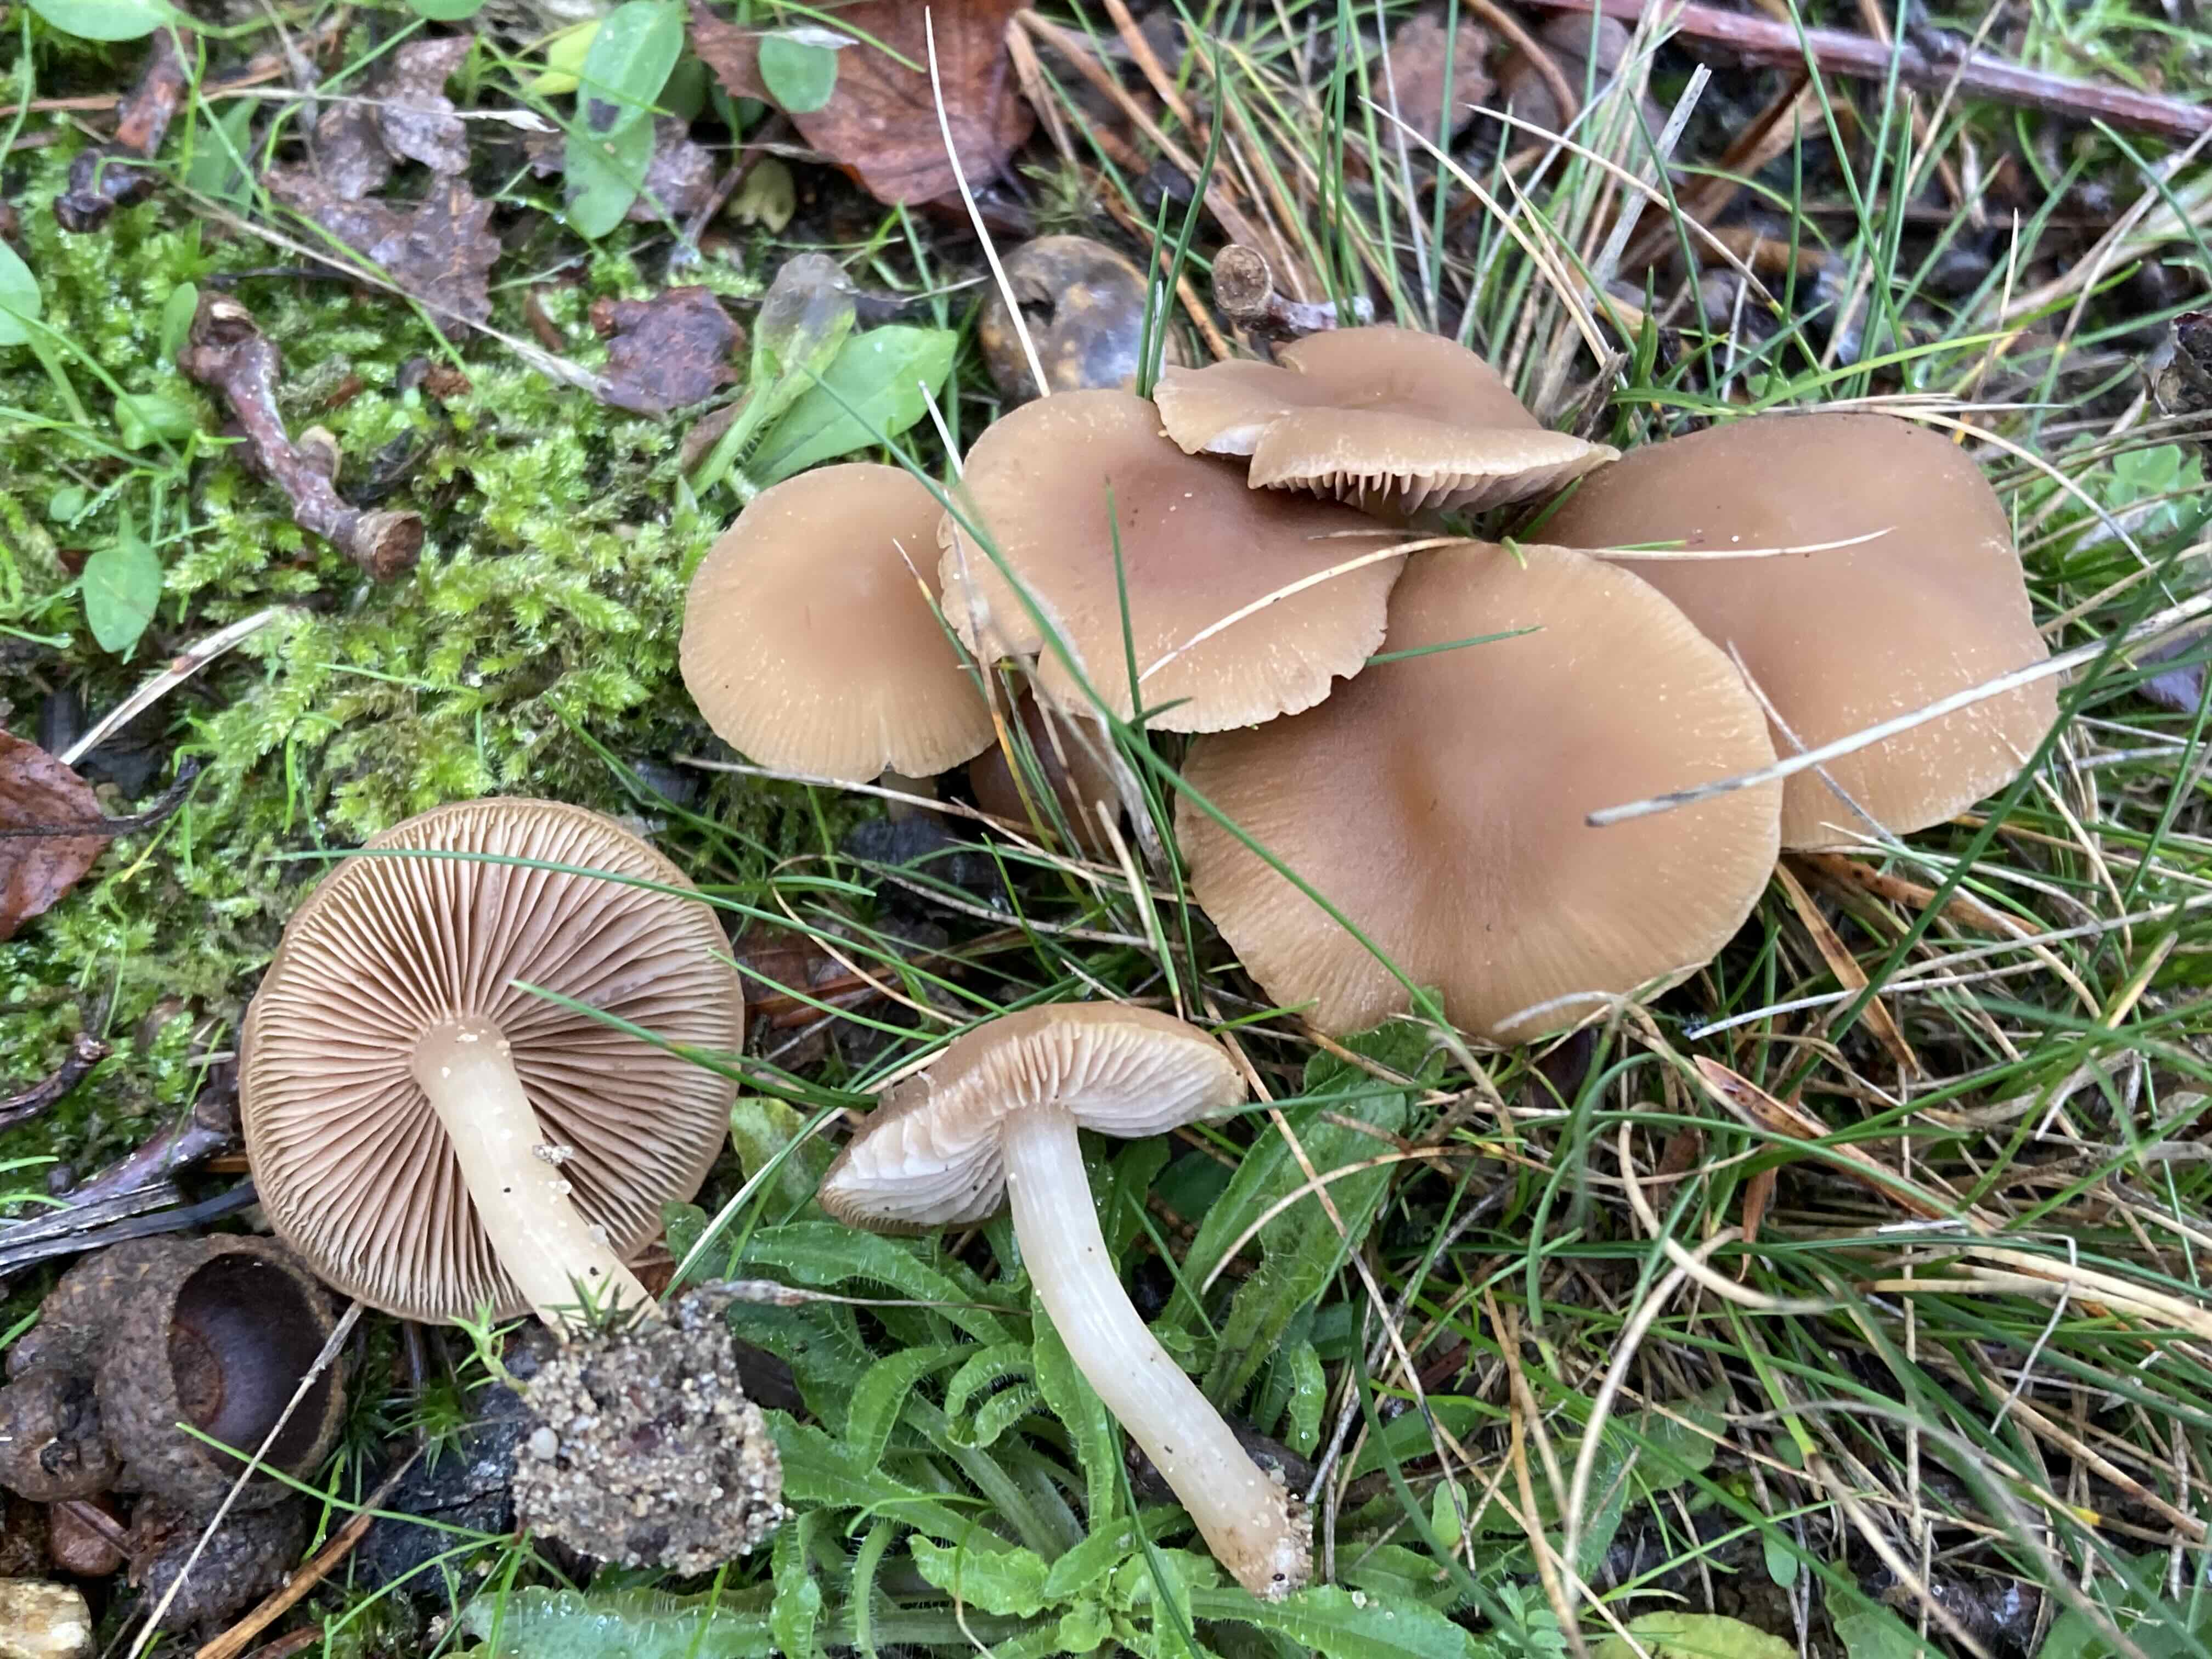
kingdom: Fungi
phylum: Basidiomycota
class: Agaricomycetes
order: Agaricales
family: Psathyrellaceae
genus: Psathyrella
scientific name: Psathyrella piluliformis
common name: lysstokket mørkhat
